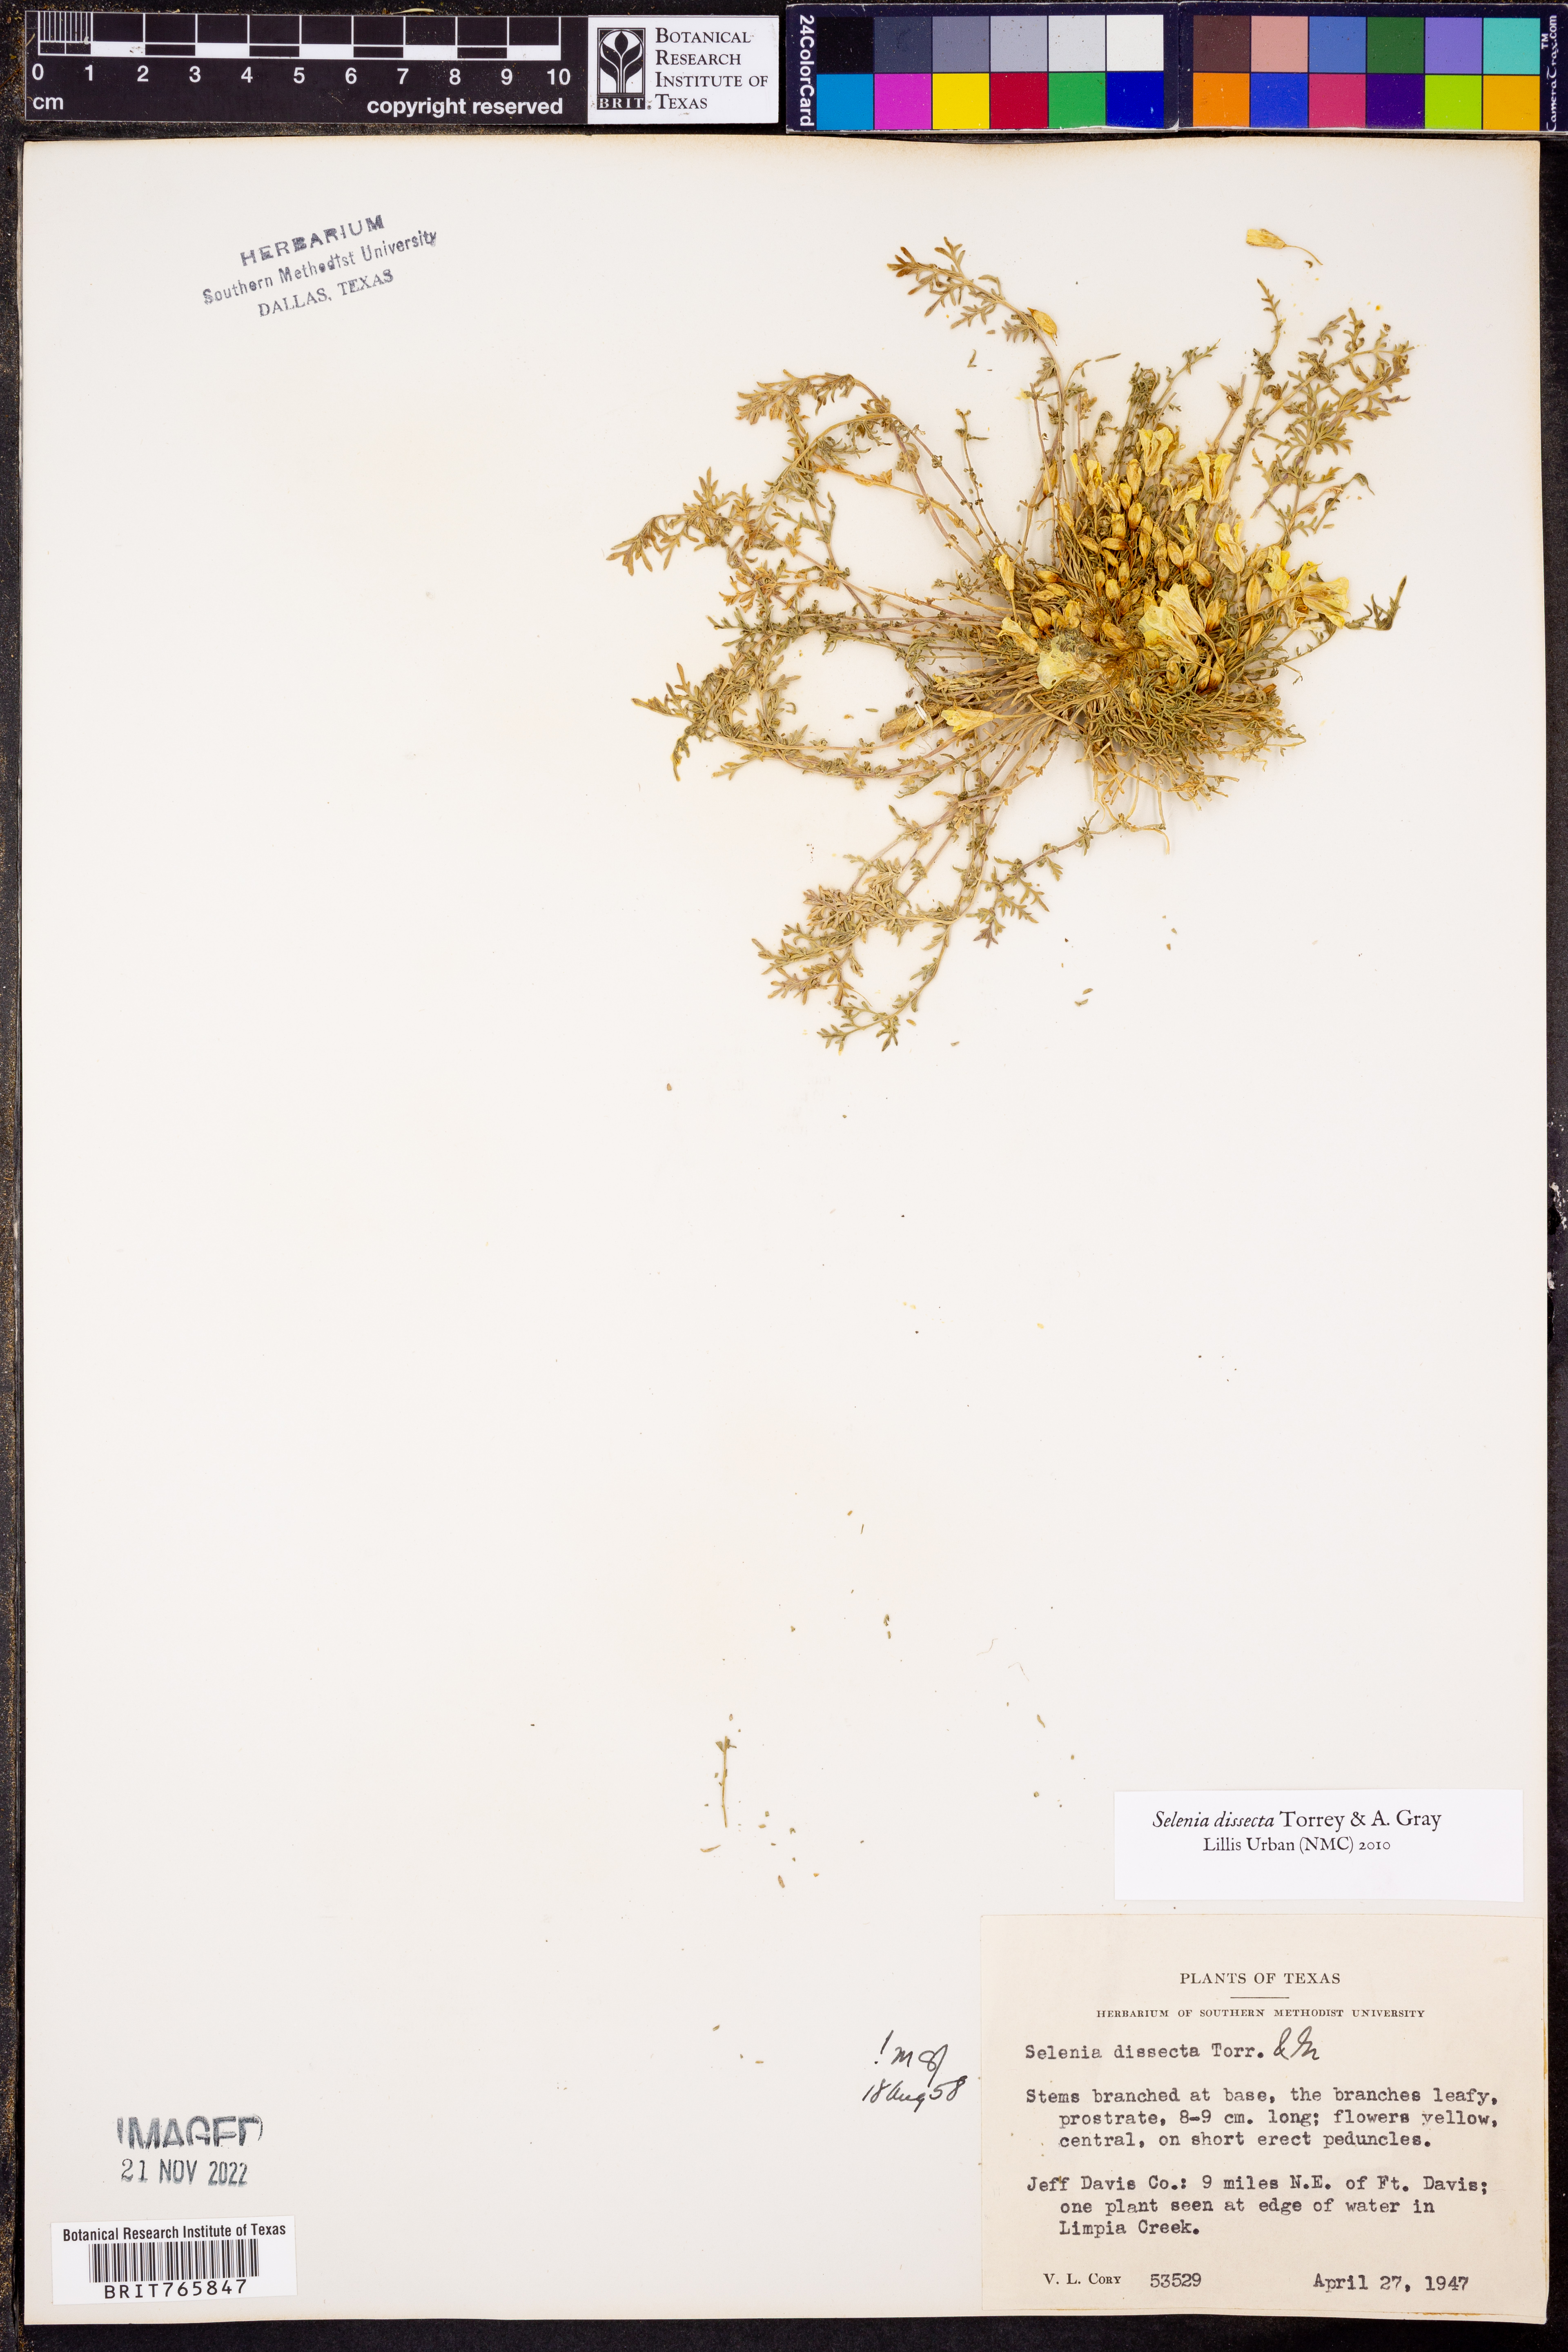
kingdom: Plantae
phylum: Tracheophyta
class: Magnoliopsida
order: Brassicales
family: Brassicaceae
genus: Selenia
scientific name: Selenia dissecta
